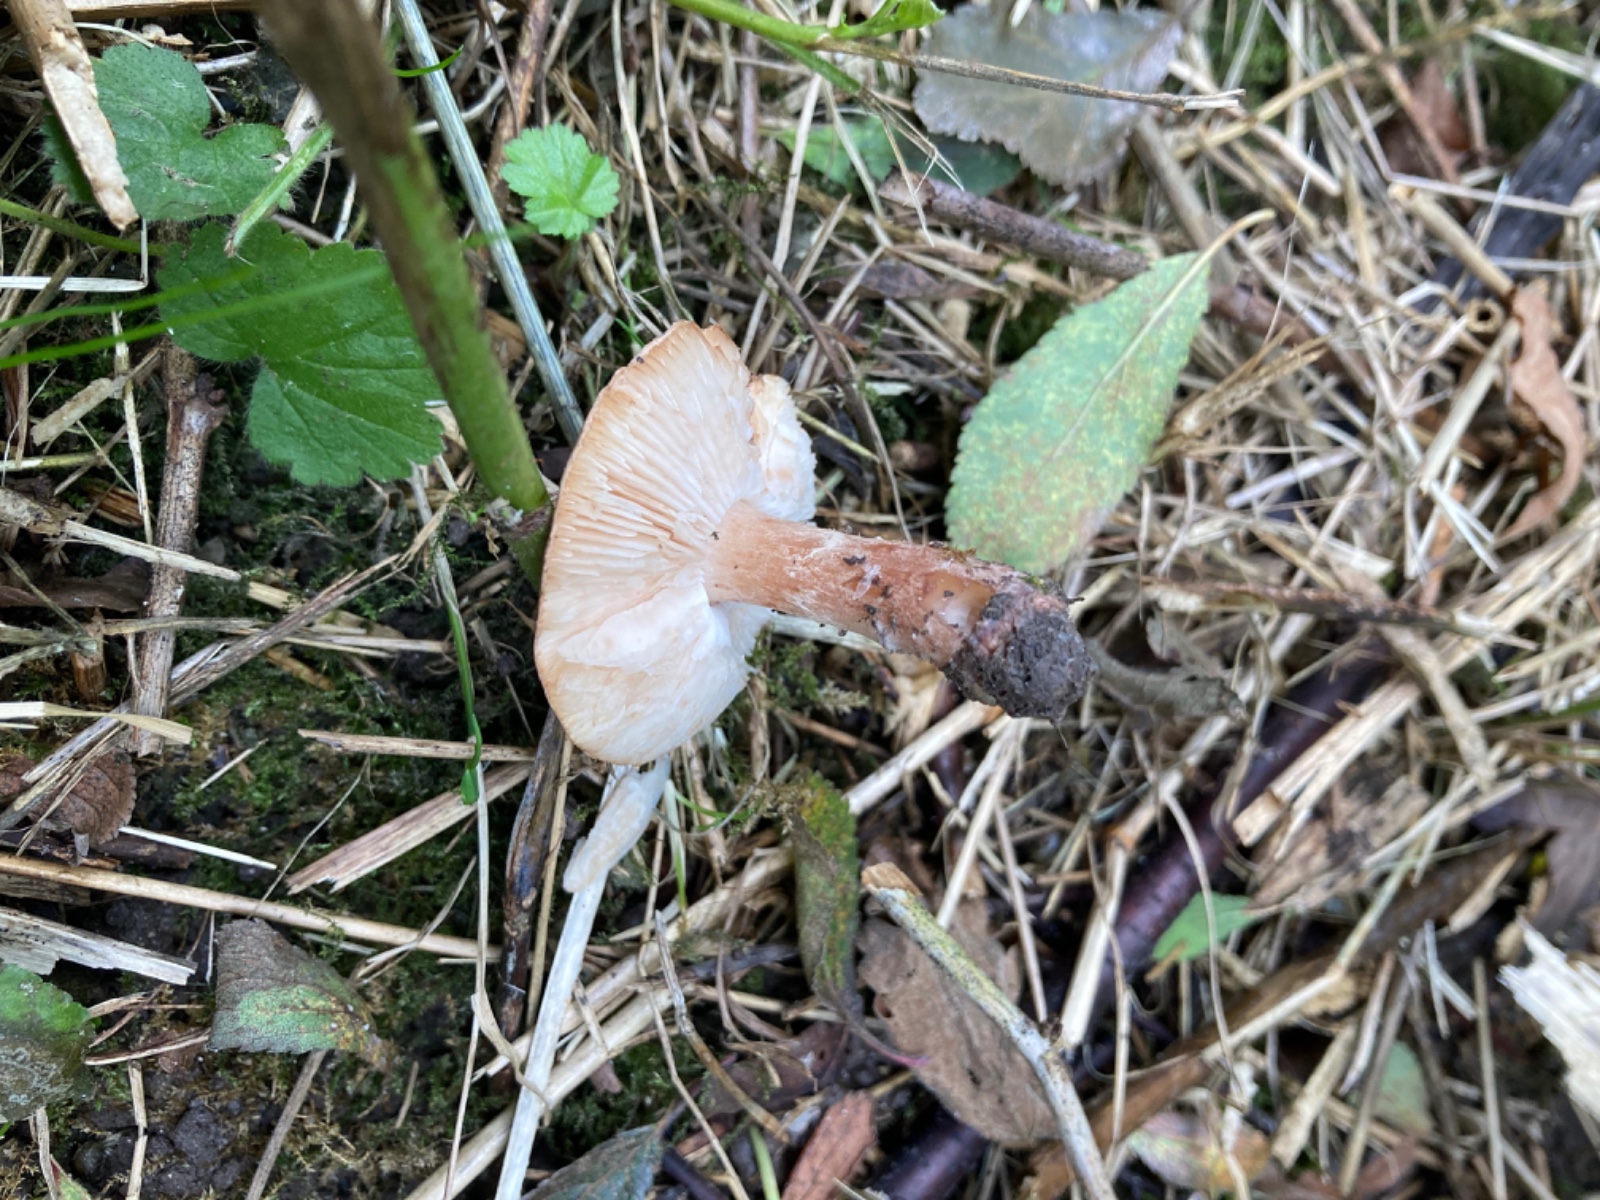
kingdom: Fungi
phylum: Basidiomycota
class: Agaricomycetes
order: Agaricales
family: Agaricaceae
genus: Lepiota
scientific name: Lepiota brunneoincarnata
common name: brunrød parasolhat
